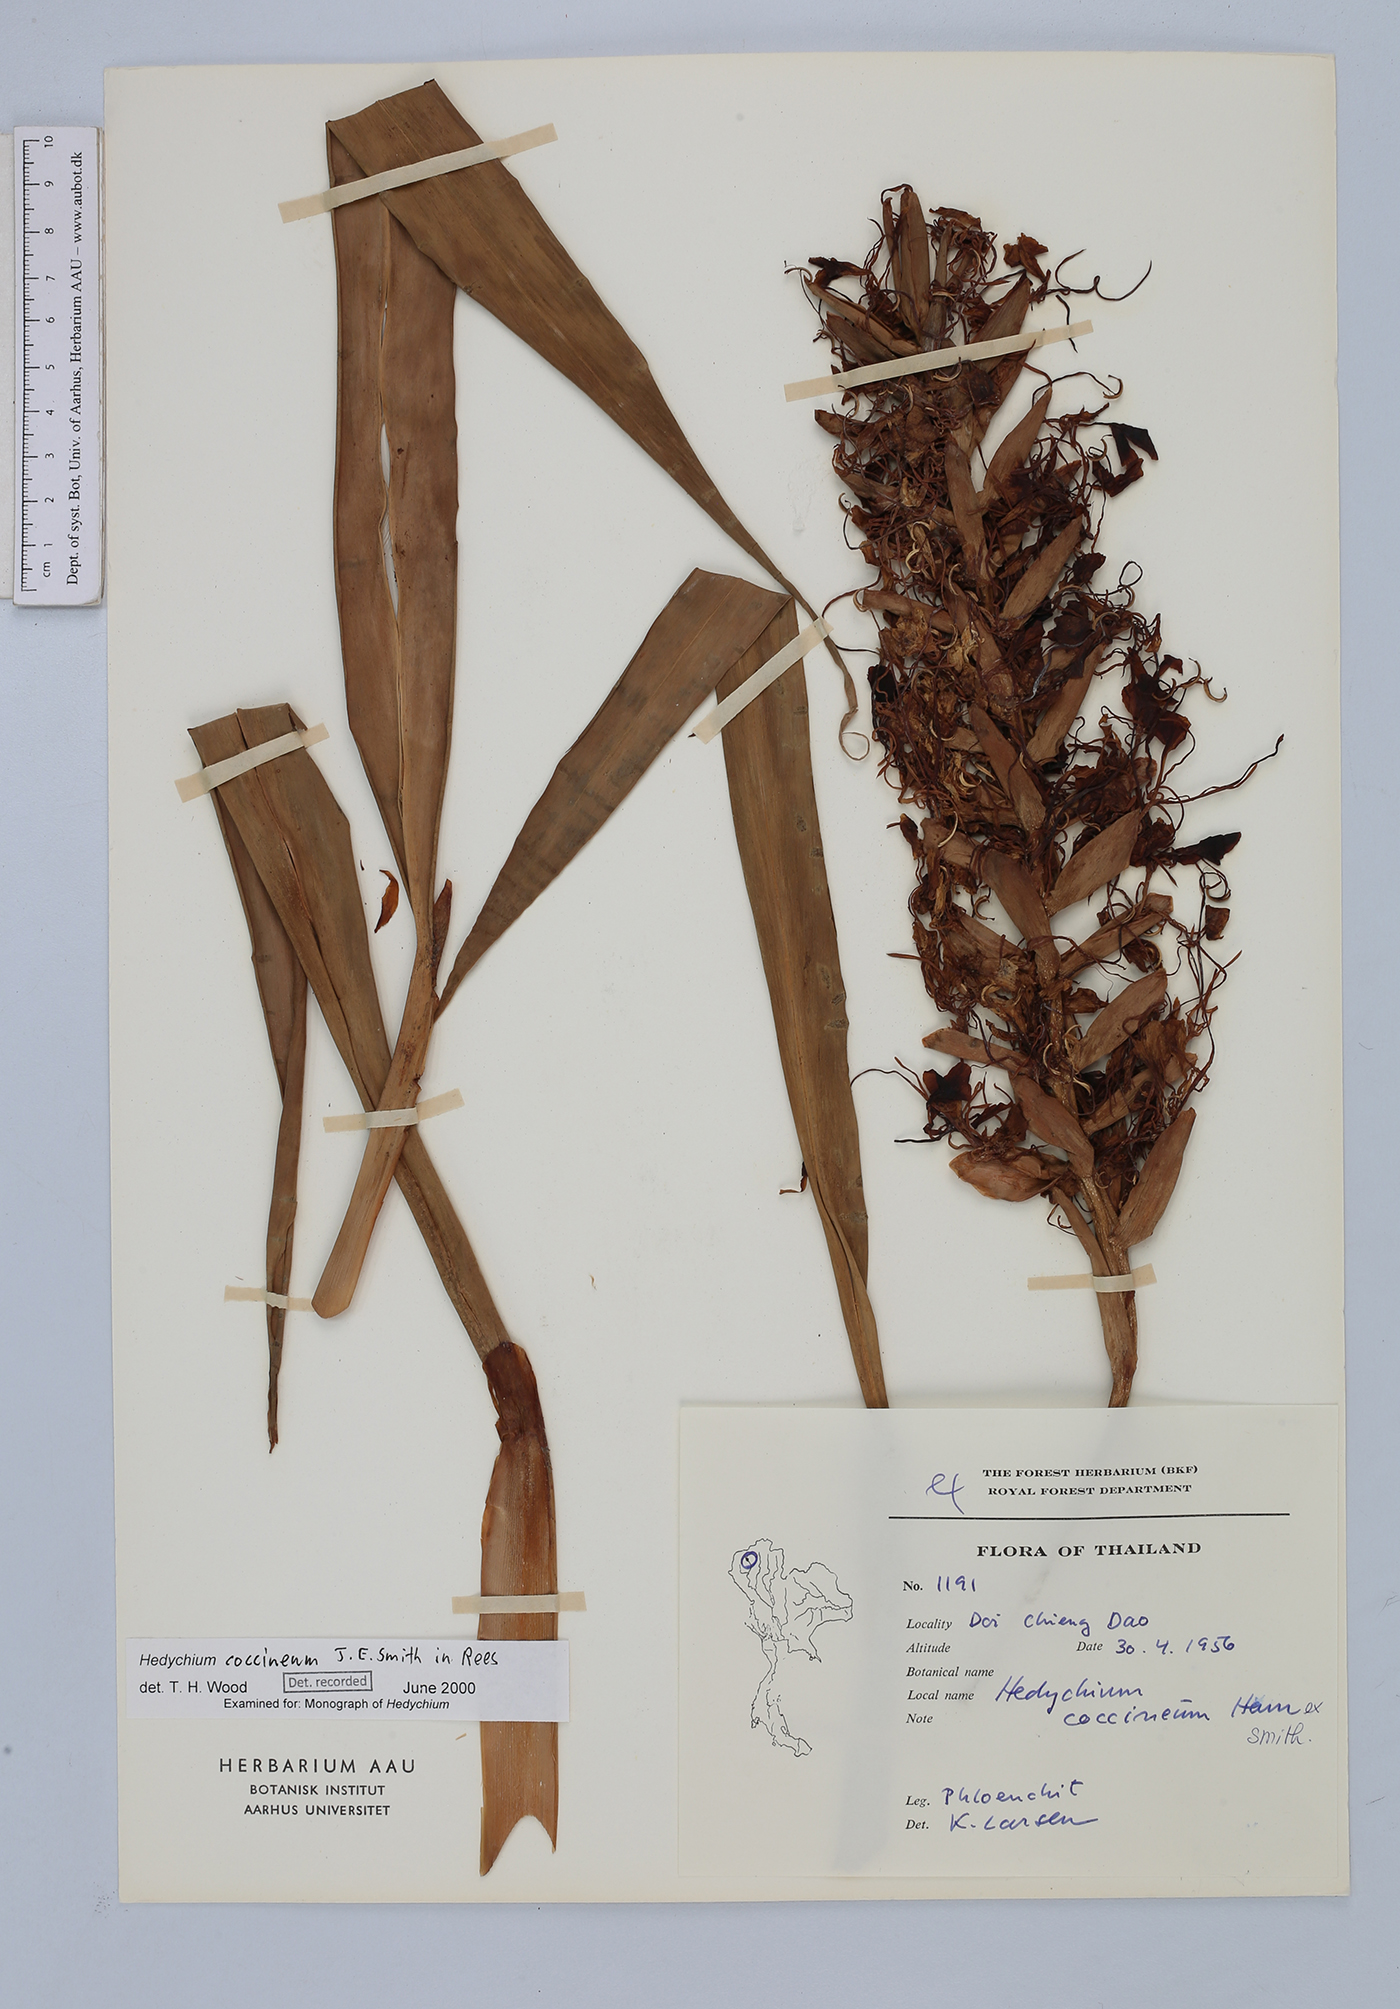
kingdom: Plantae
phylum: Tracheophyta
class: Liliopsida
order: Zingiberales
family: Zingiberaceae
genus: Hedychium
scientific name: Hedychium coccineum
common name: Red ginger-lily
